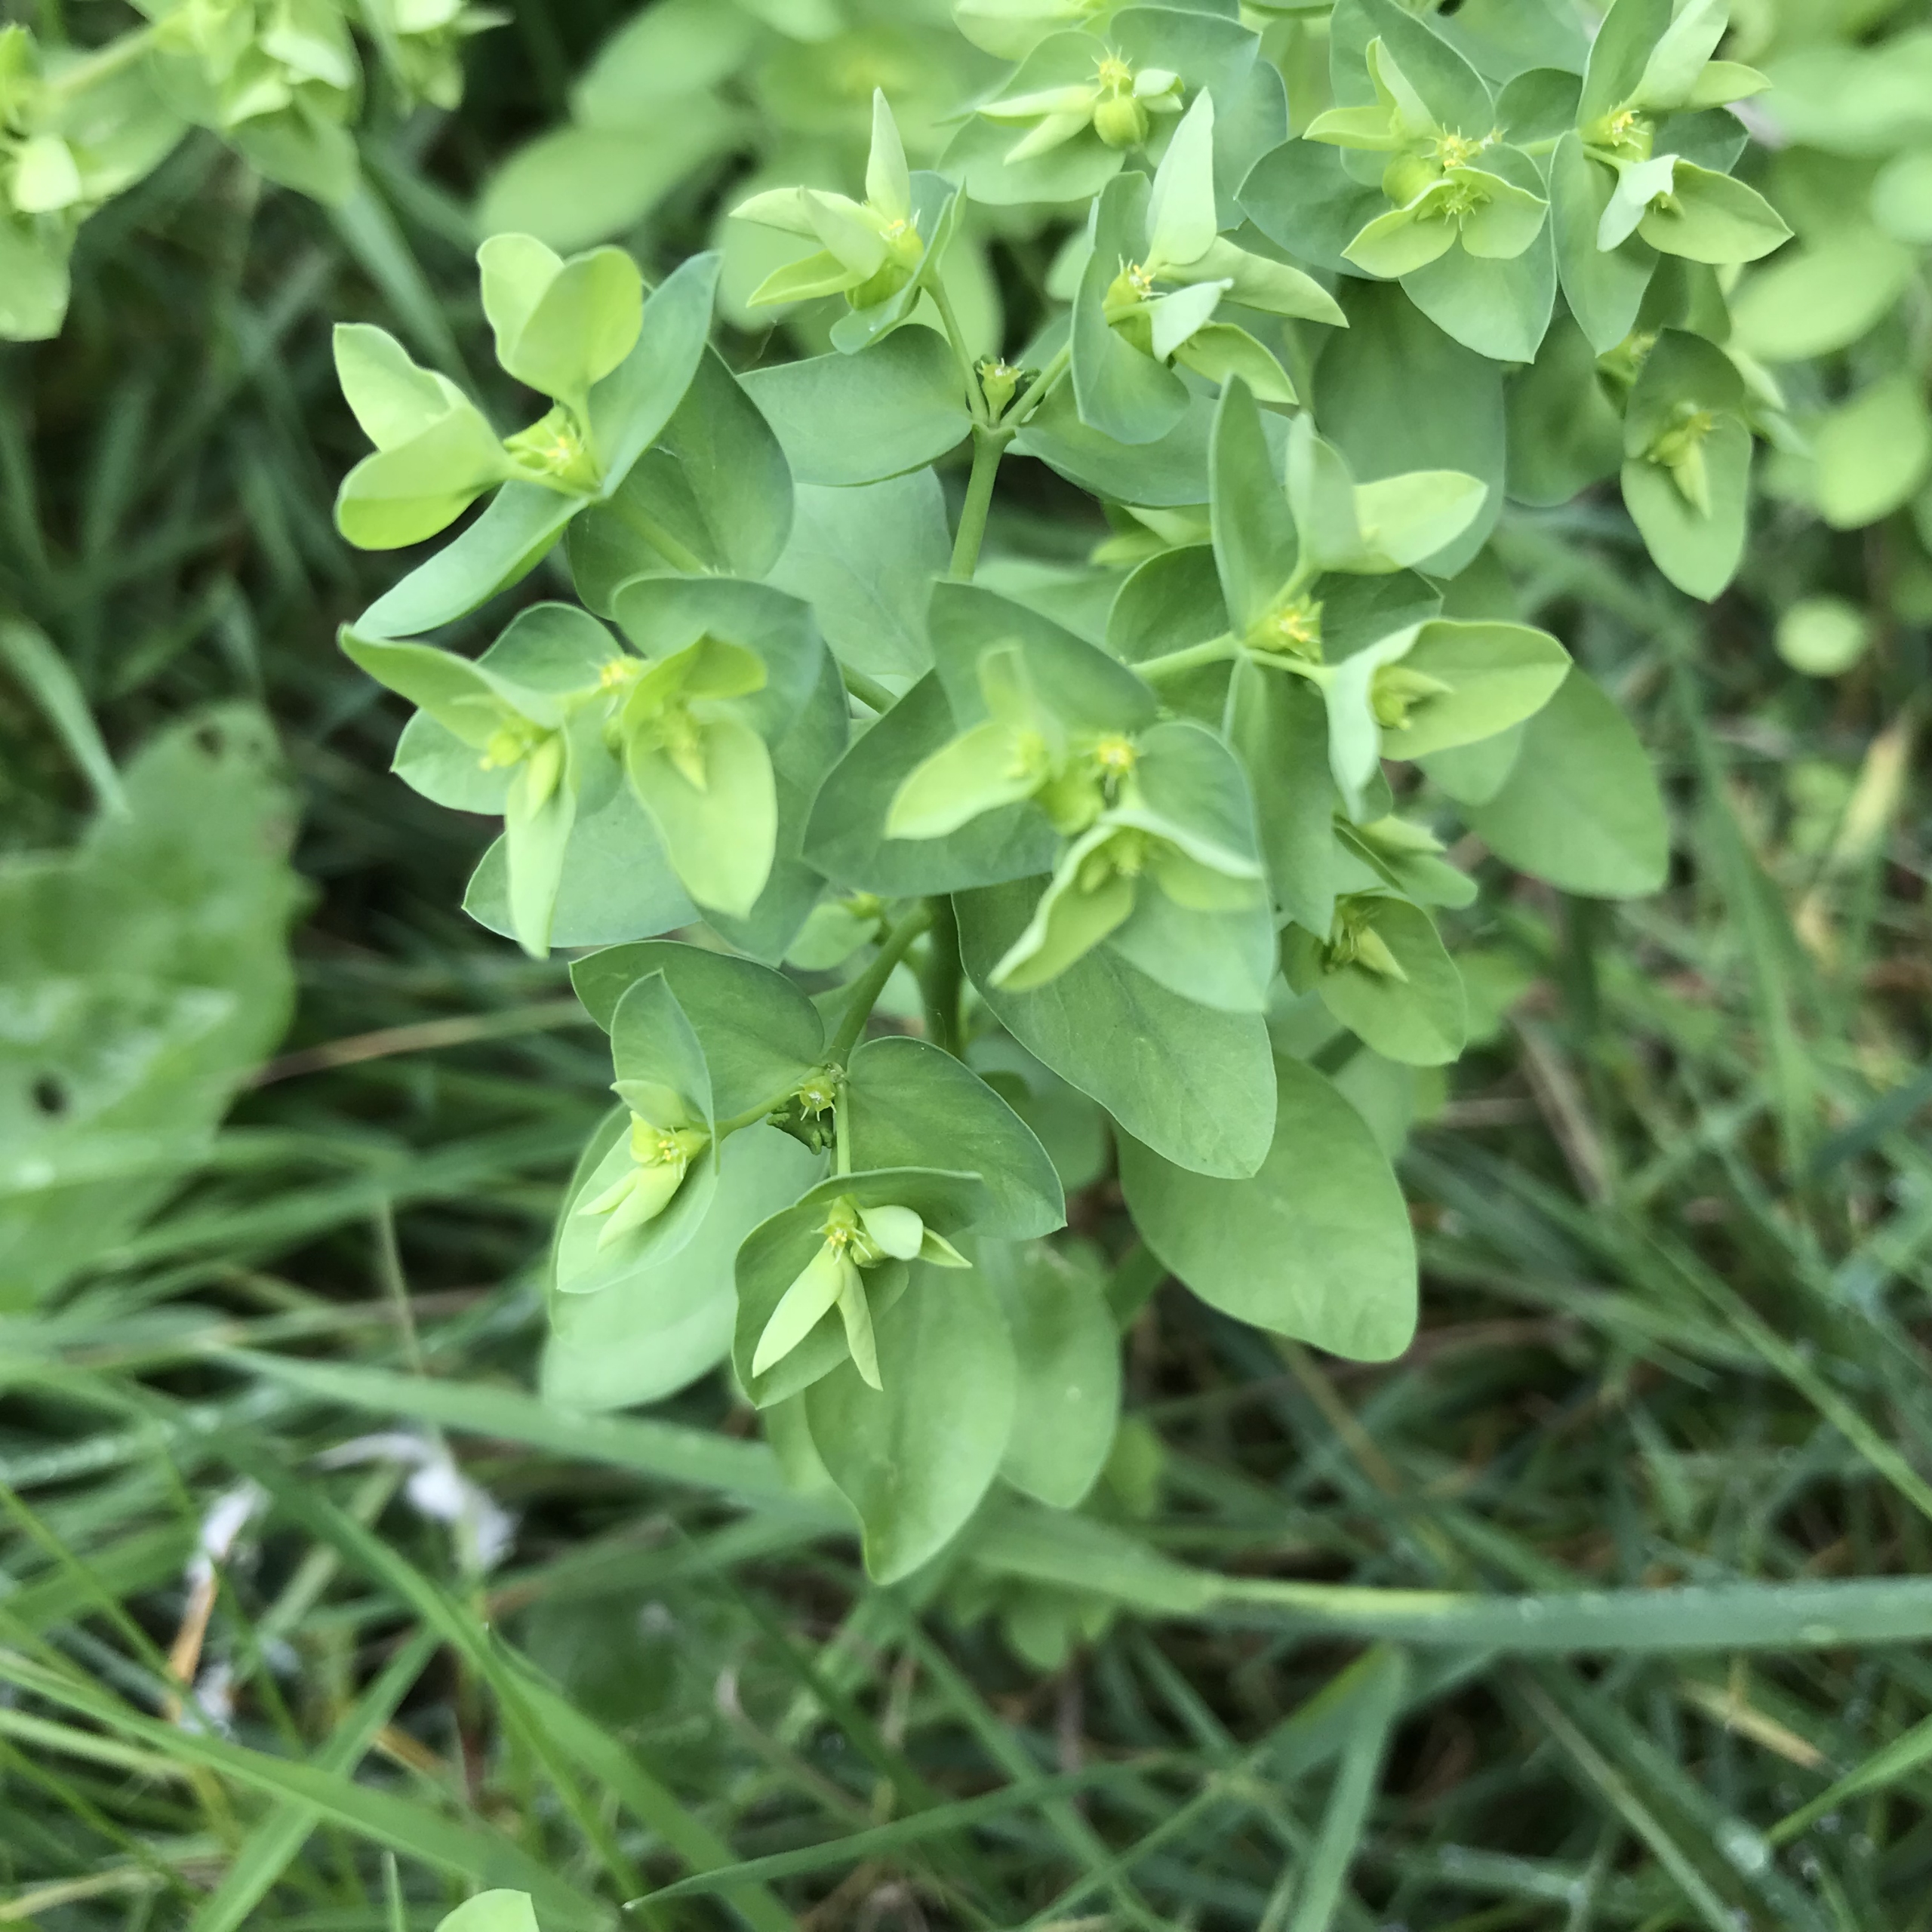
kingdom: Plantae
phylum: Tracheophyta
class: Magnoliopsida
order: Malpighiales
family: Euphorbiaceae
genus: Euphorbia
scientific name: Euphorbia peplus
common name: Gaffel-vortemælk
